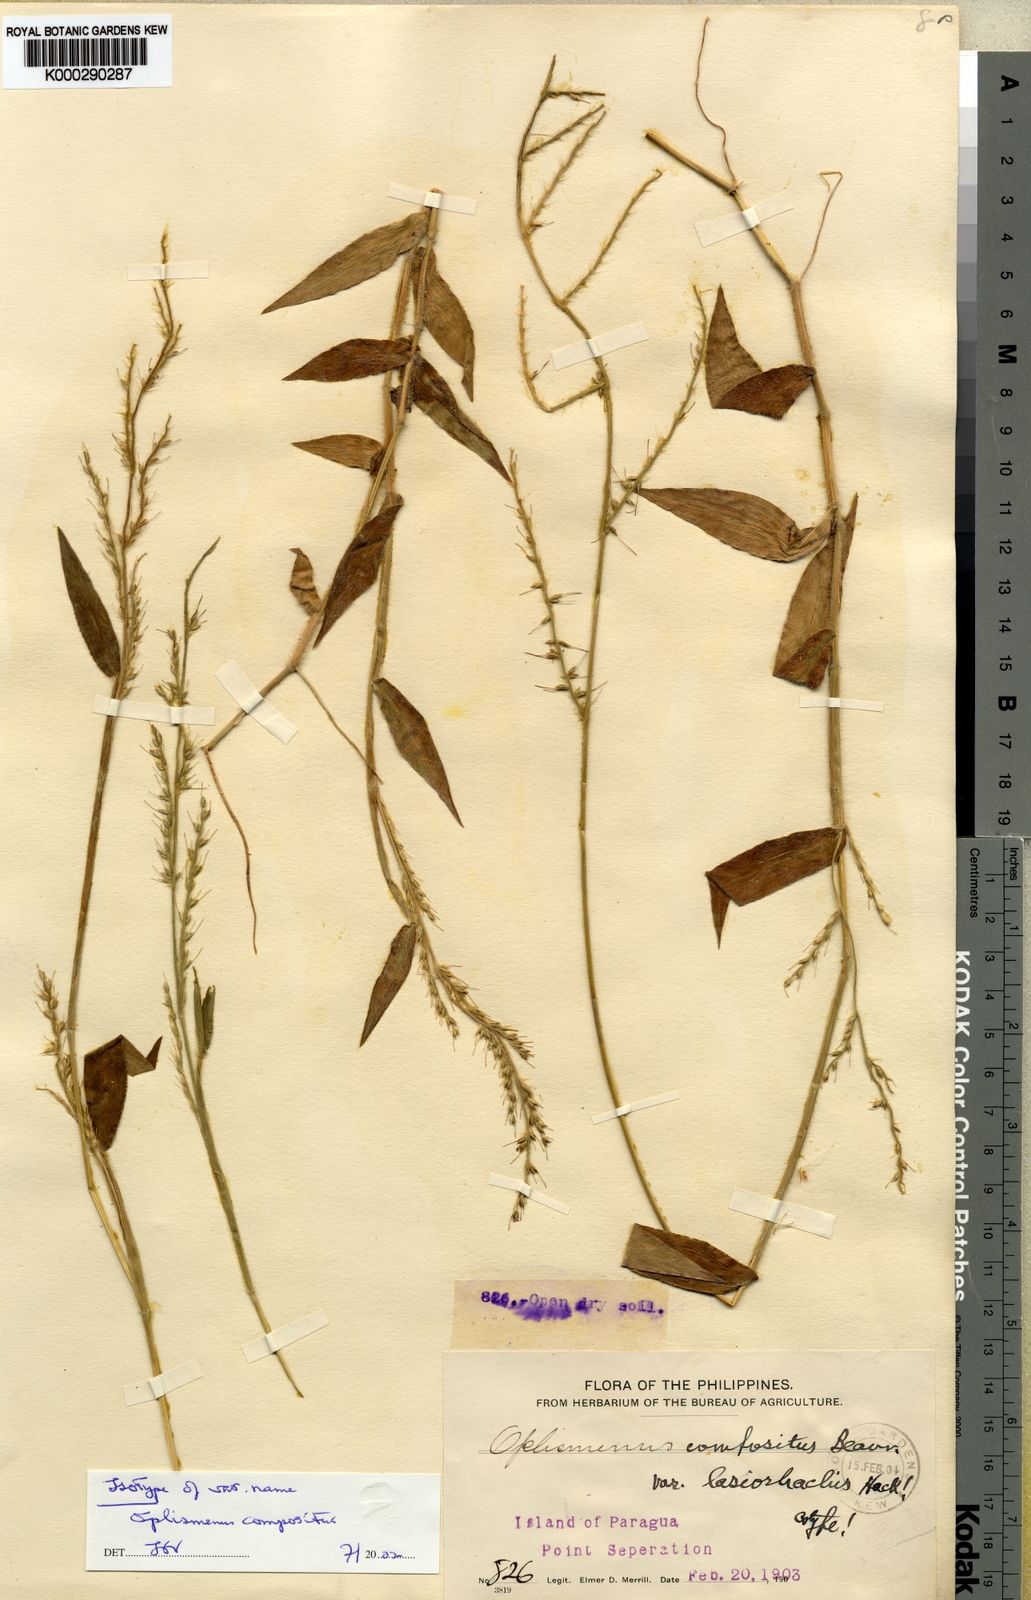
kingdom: Plantae
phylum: Tracheophyta
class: Liliopsida
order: Poales
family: Poaceae
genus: Oplismenus
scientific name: Oplismenus compositus
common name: Running mountain grass
